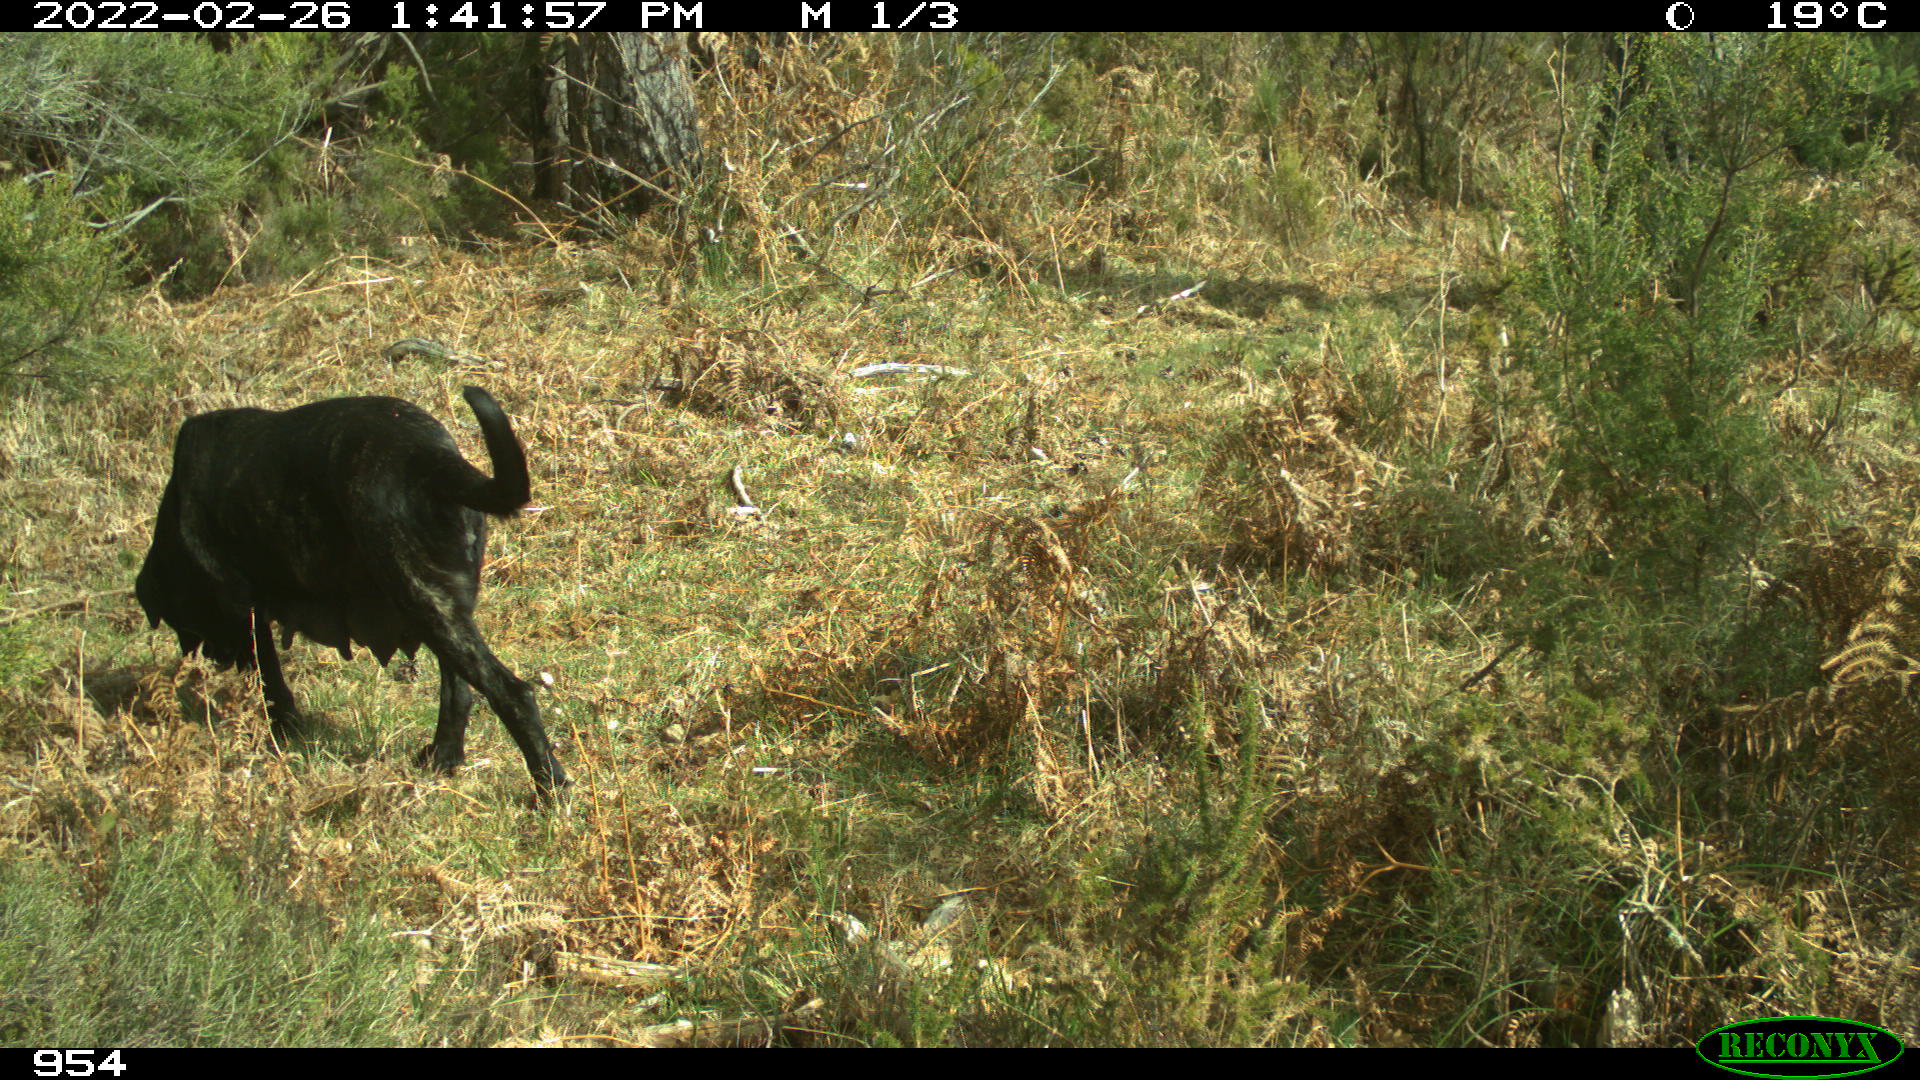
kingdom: Animalia
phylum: Chordata
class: Mammalia
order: Carnivora
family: Canidae
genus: Canis
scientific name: Canis lupus
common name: Gray wolf
